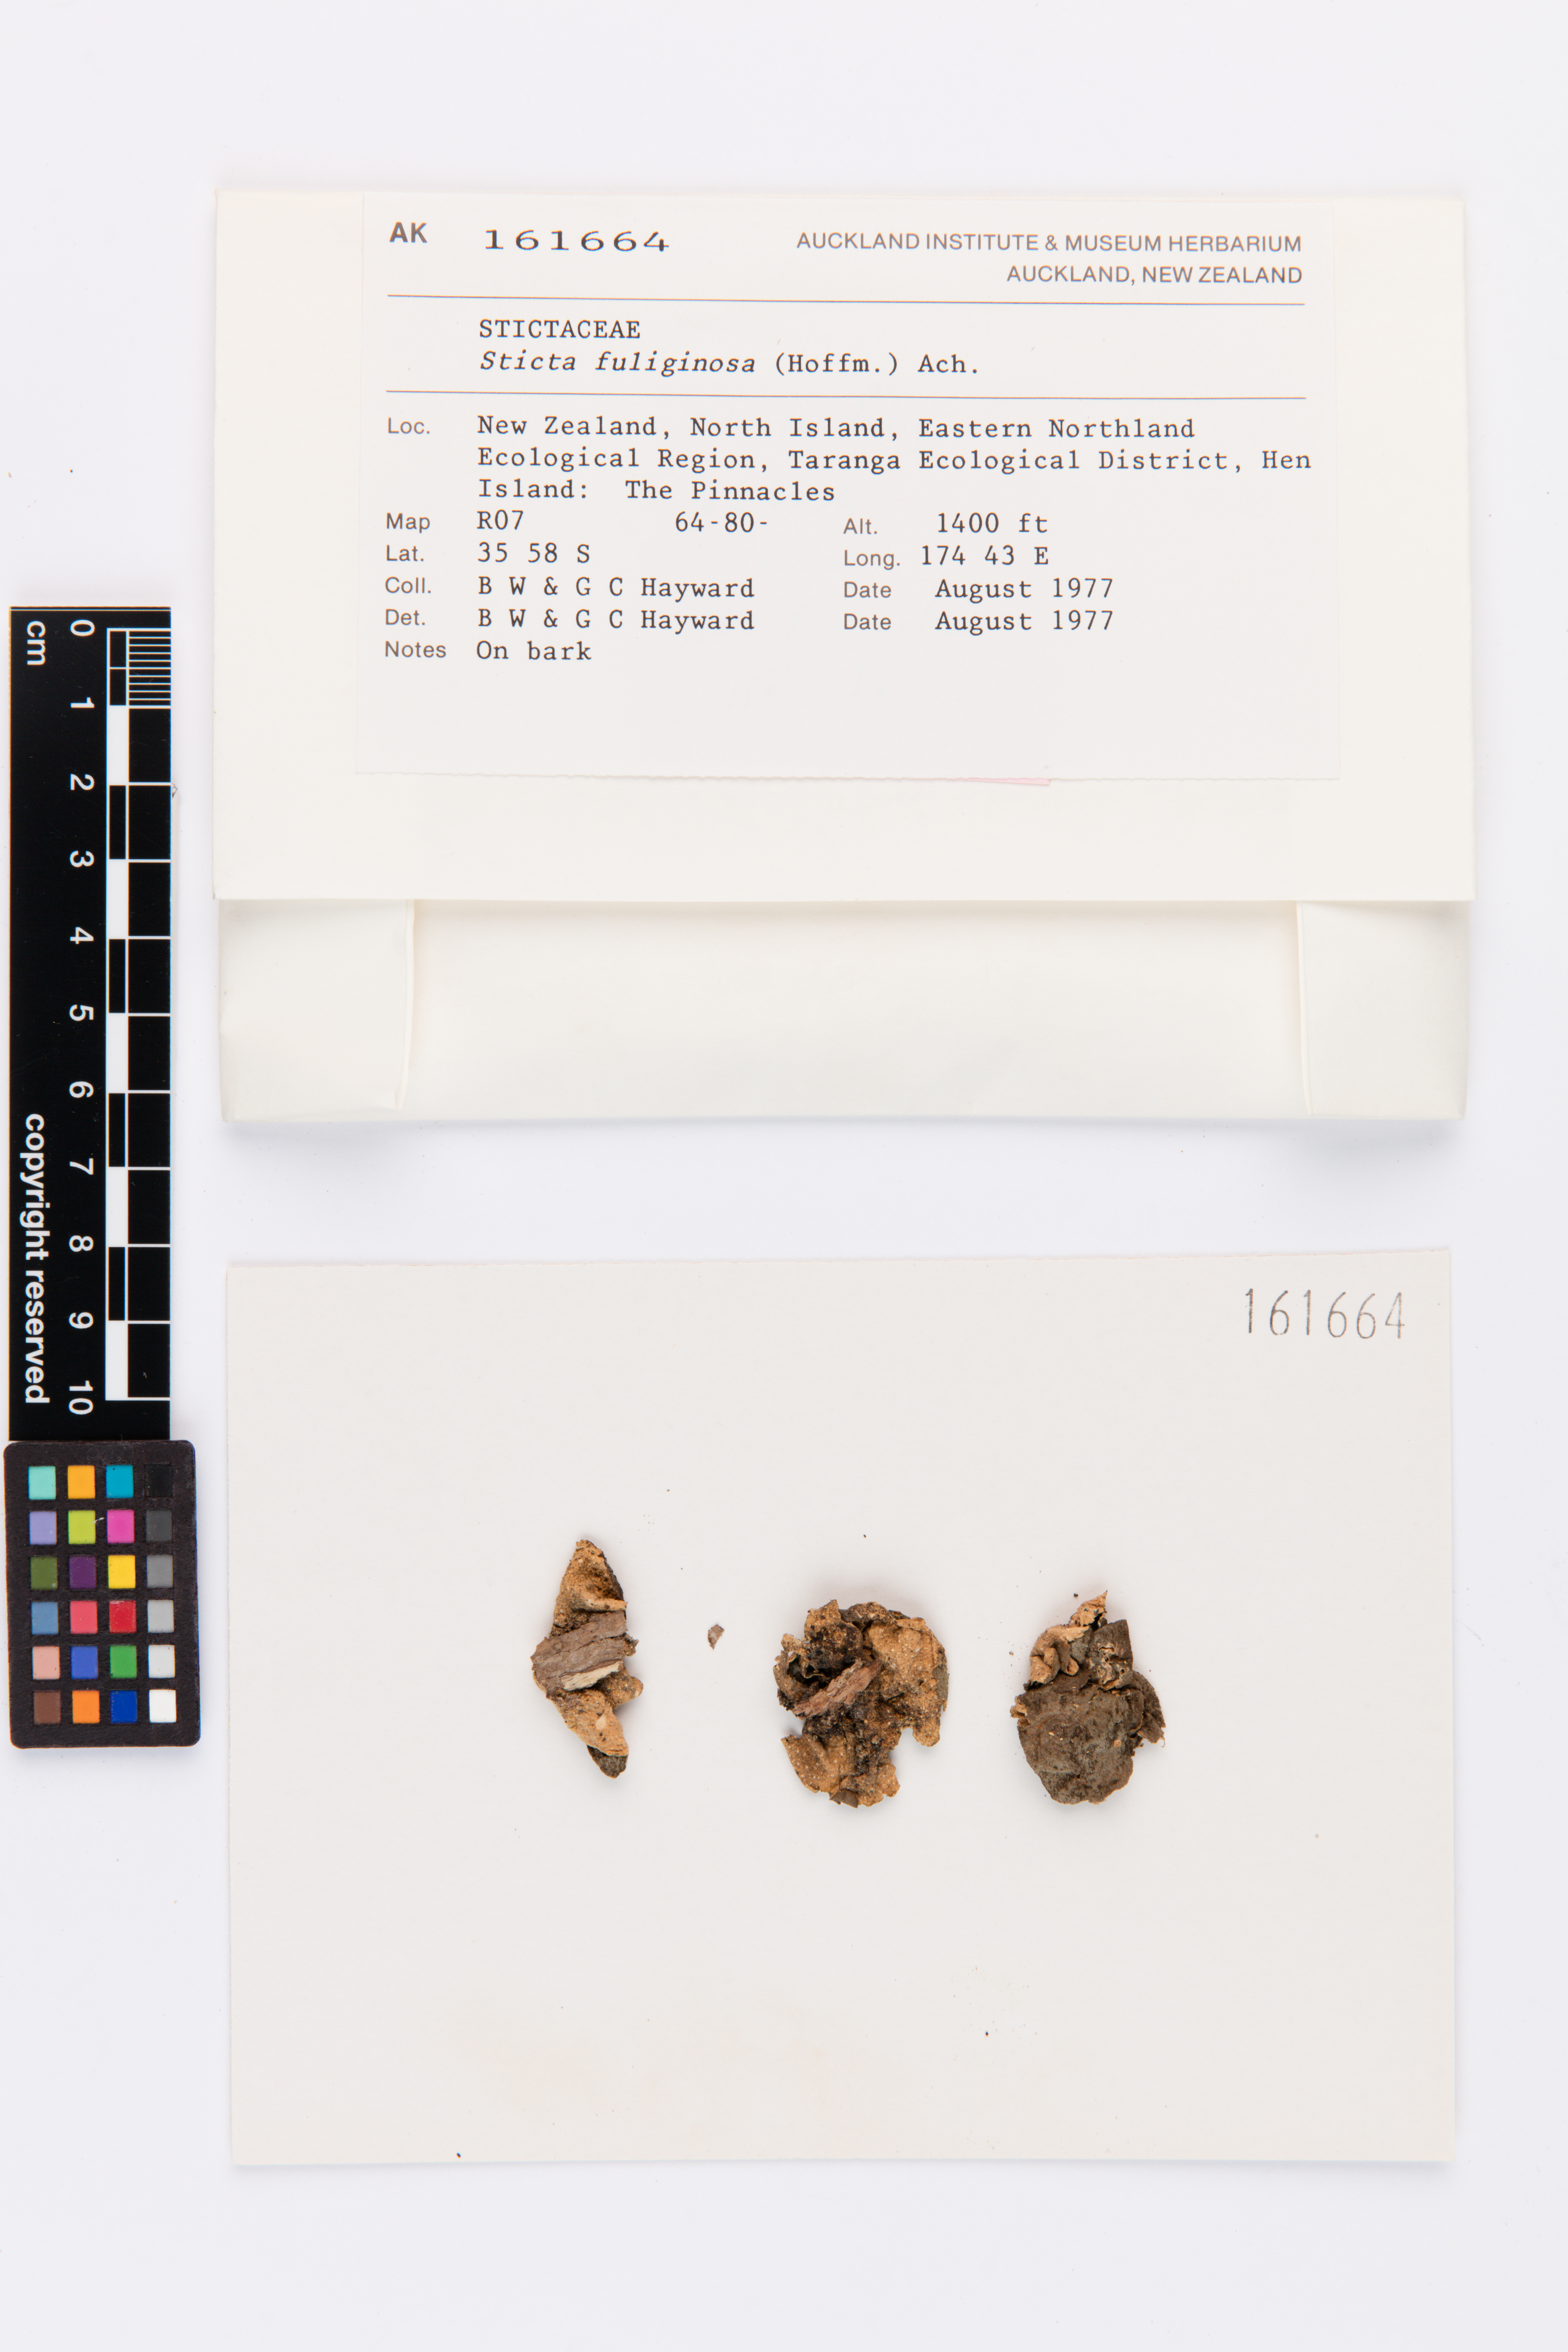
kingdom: Fungi
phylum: Ascomycota
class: Lecanoromycetes
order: Peltigerales
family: Lobariaceae
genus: Sticta
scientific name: Sticta fuliginosa
